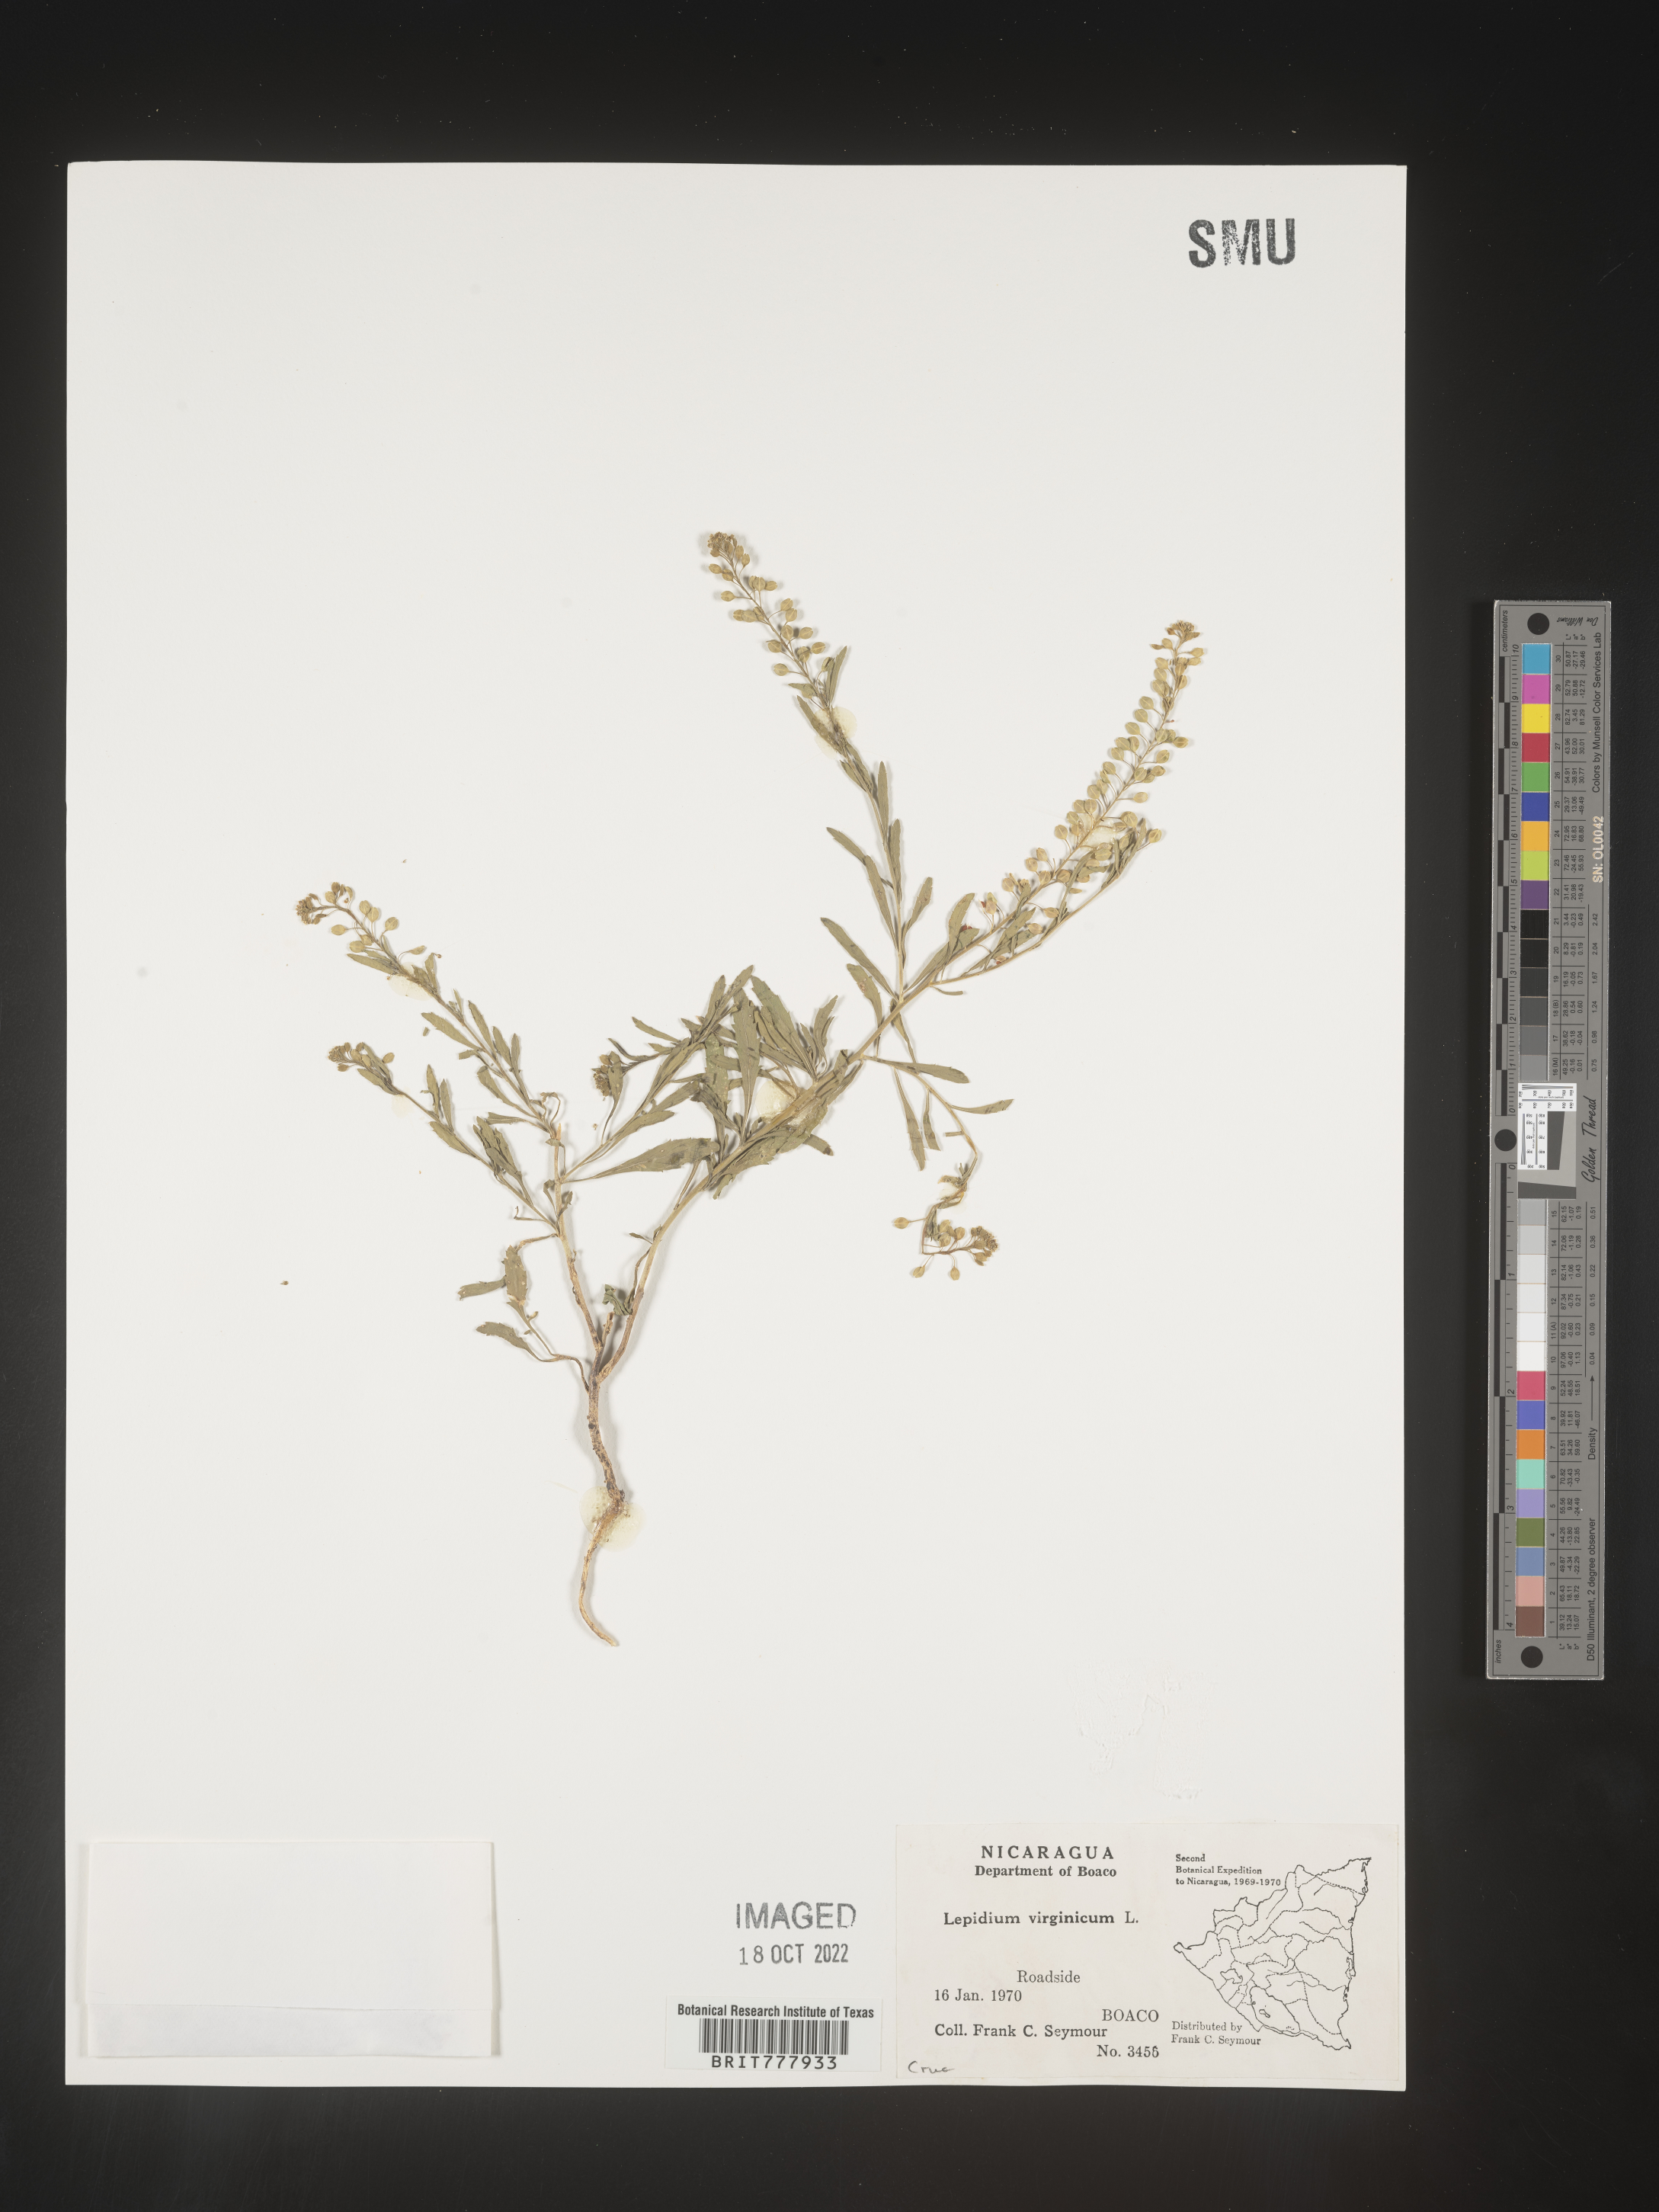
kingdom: Plantae
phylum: Tracheophyta
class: Magnoliopsida
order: Brassicales
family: Brassicaceae
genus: Lepidium
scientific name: Lepidium
